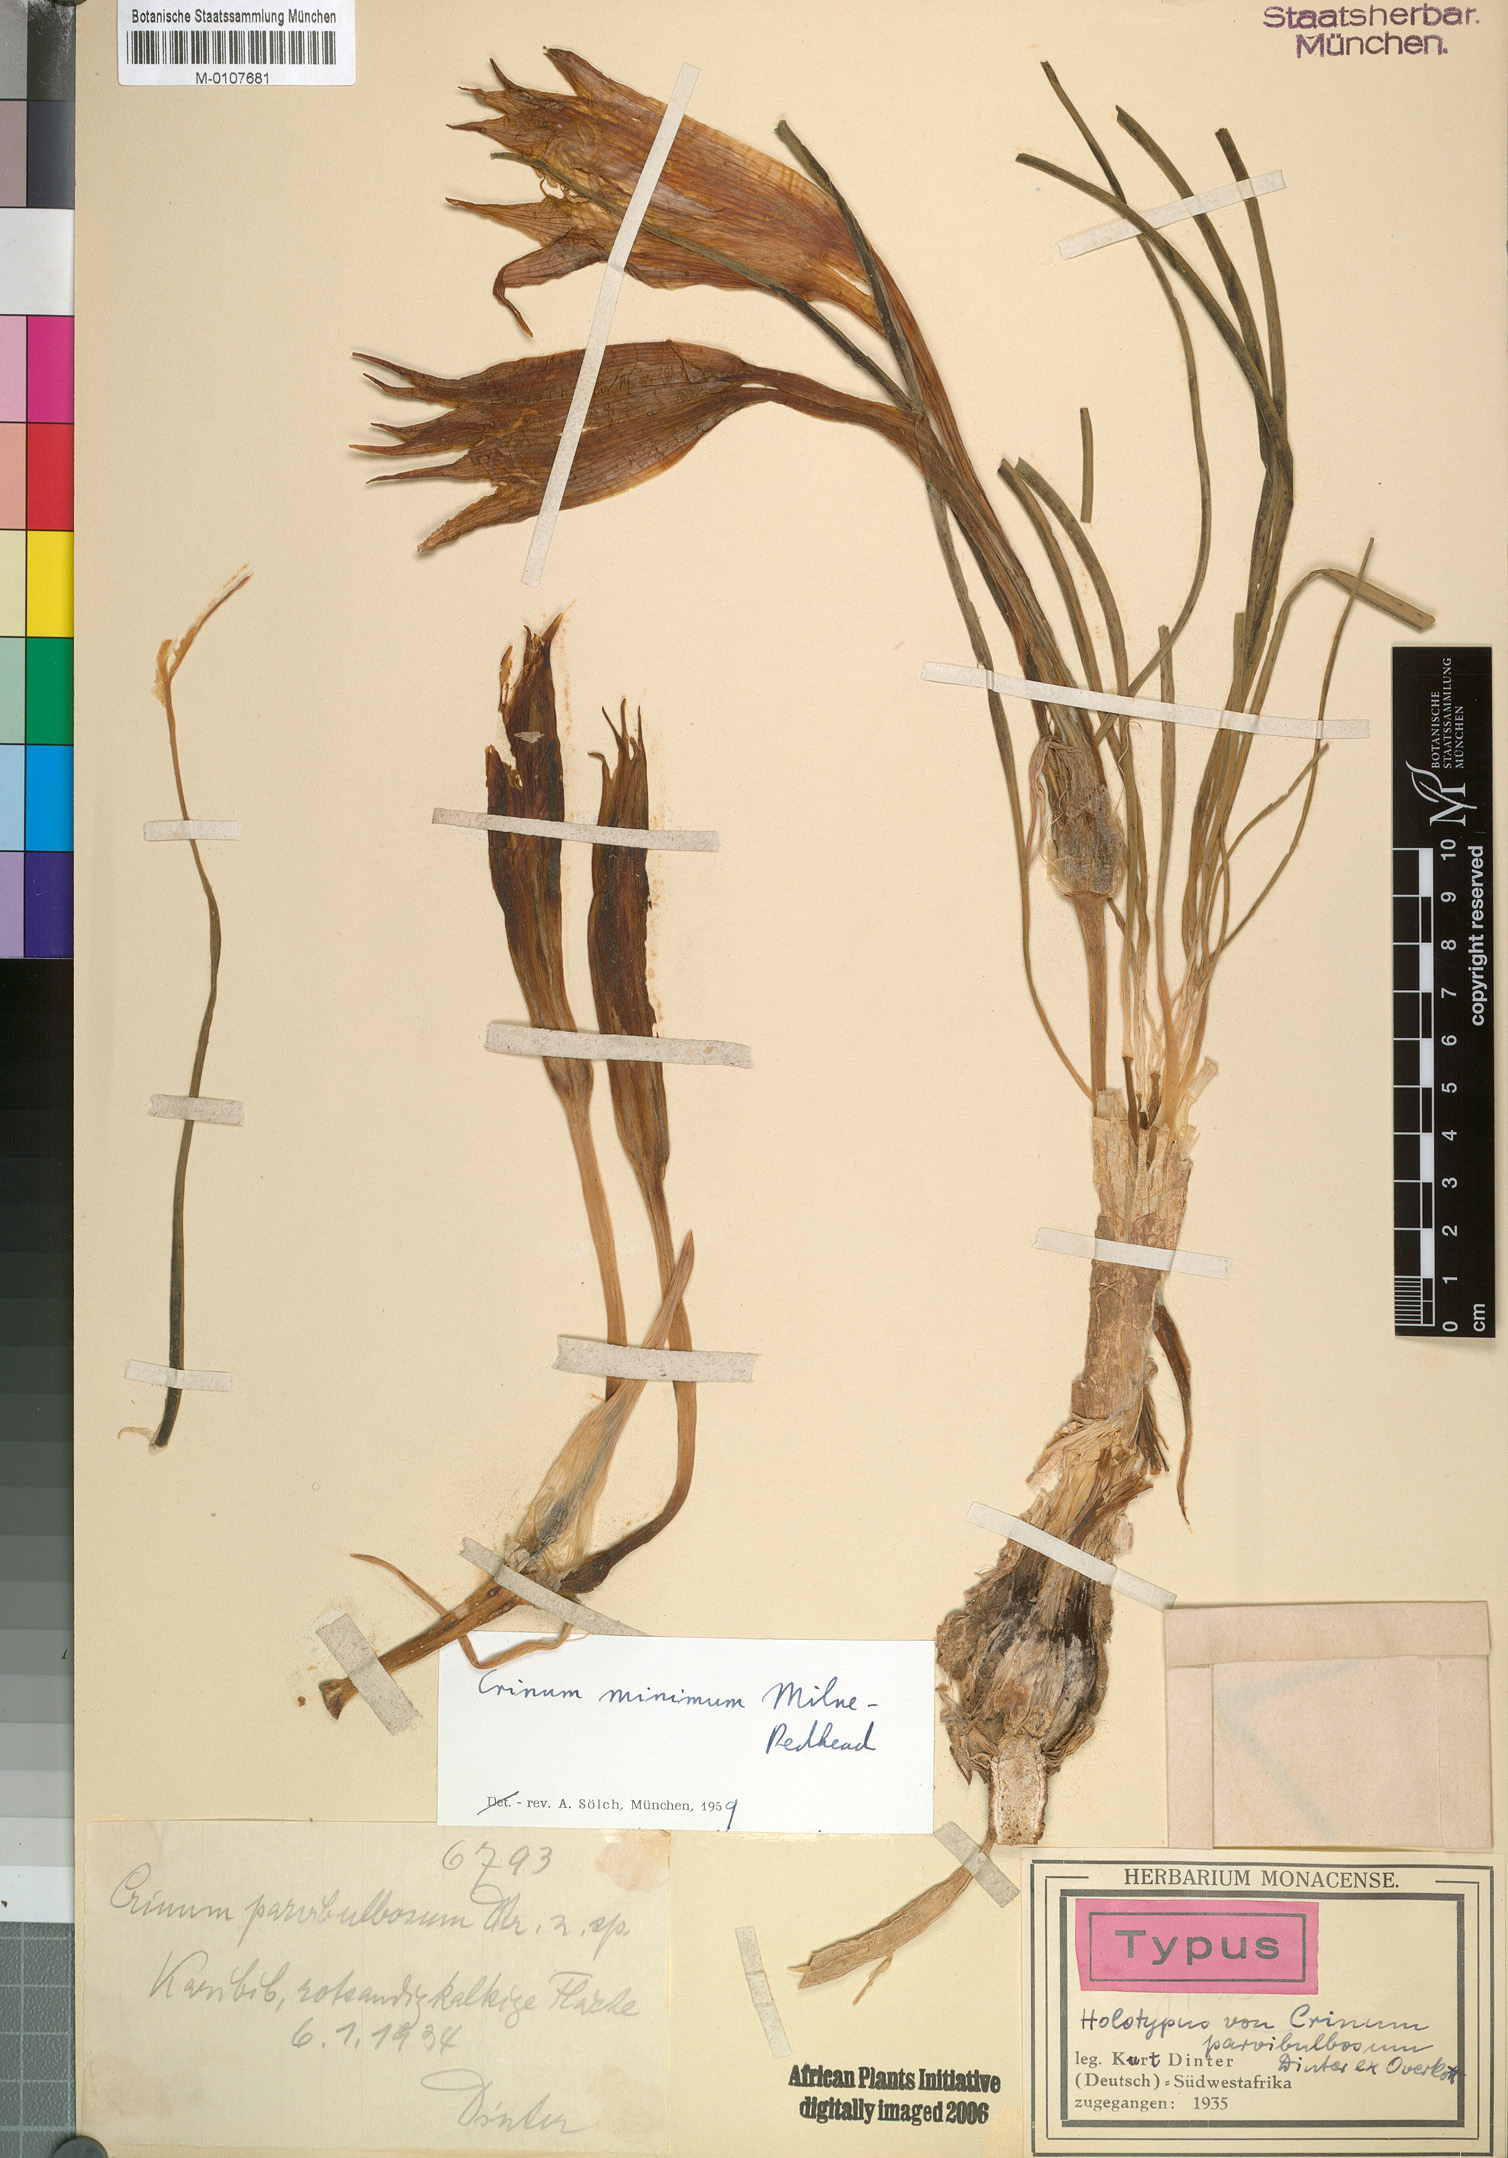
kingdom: Plantae
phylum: Tracheophyta
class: Liliopsida
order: Asparagales
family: Amaryllidaceae
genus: Crinum
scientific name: Crinum minimum
